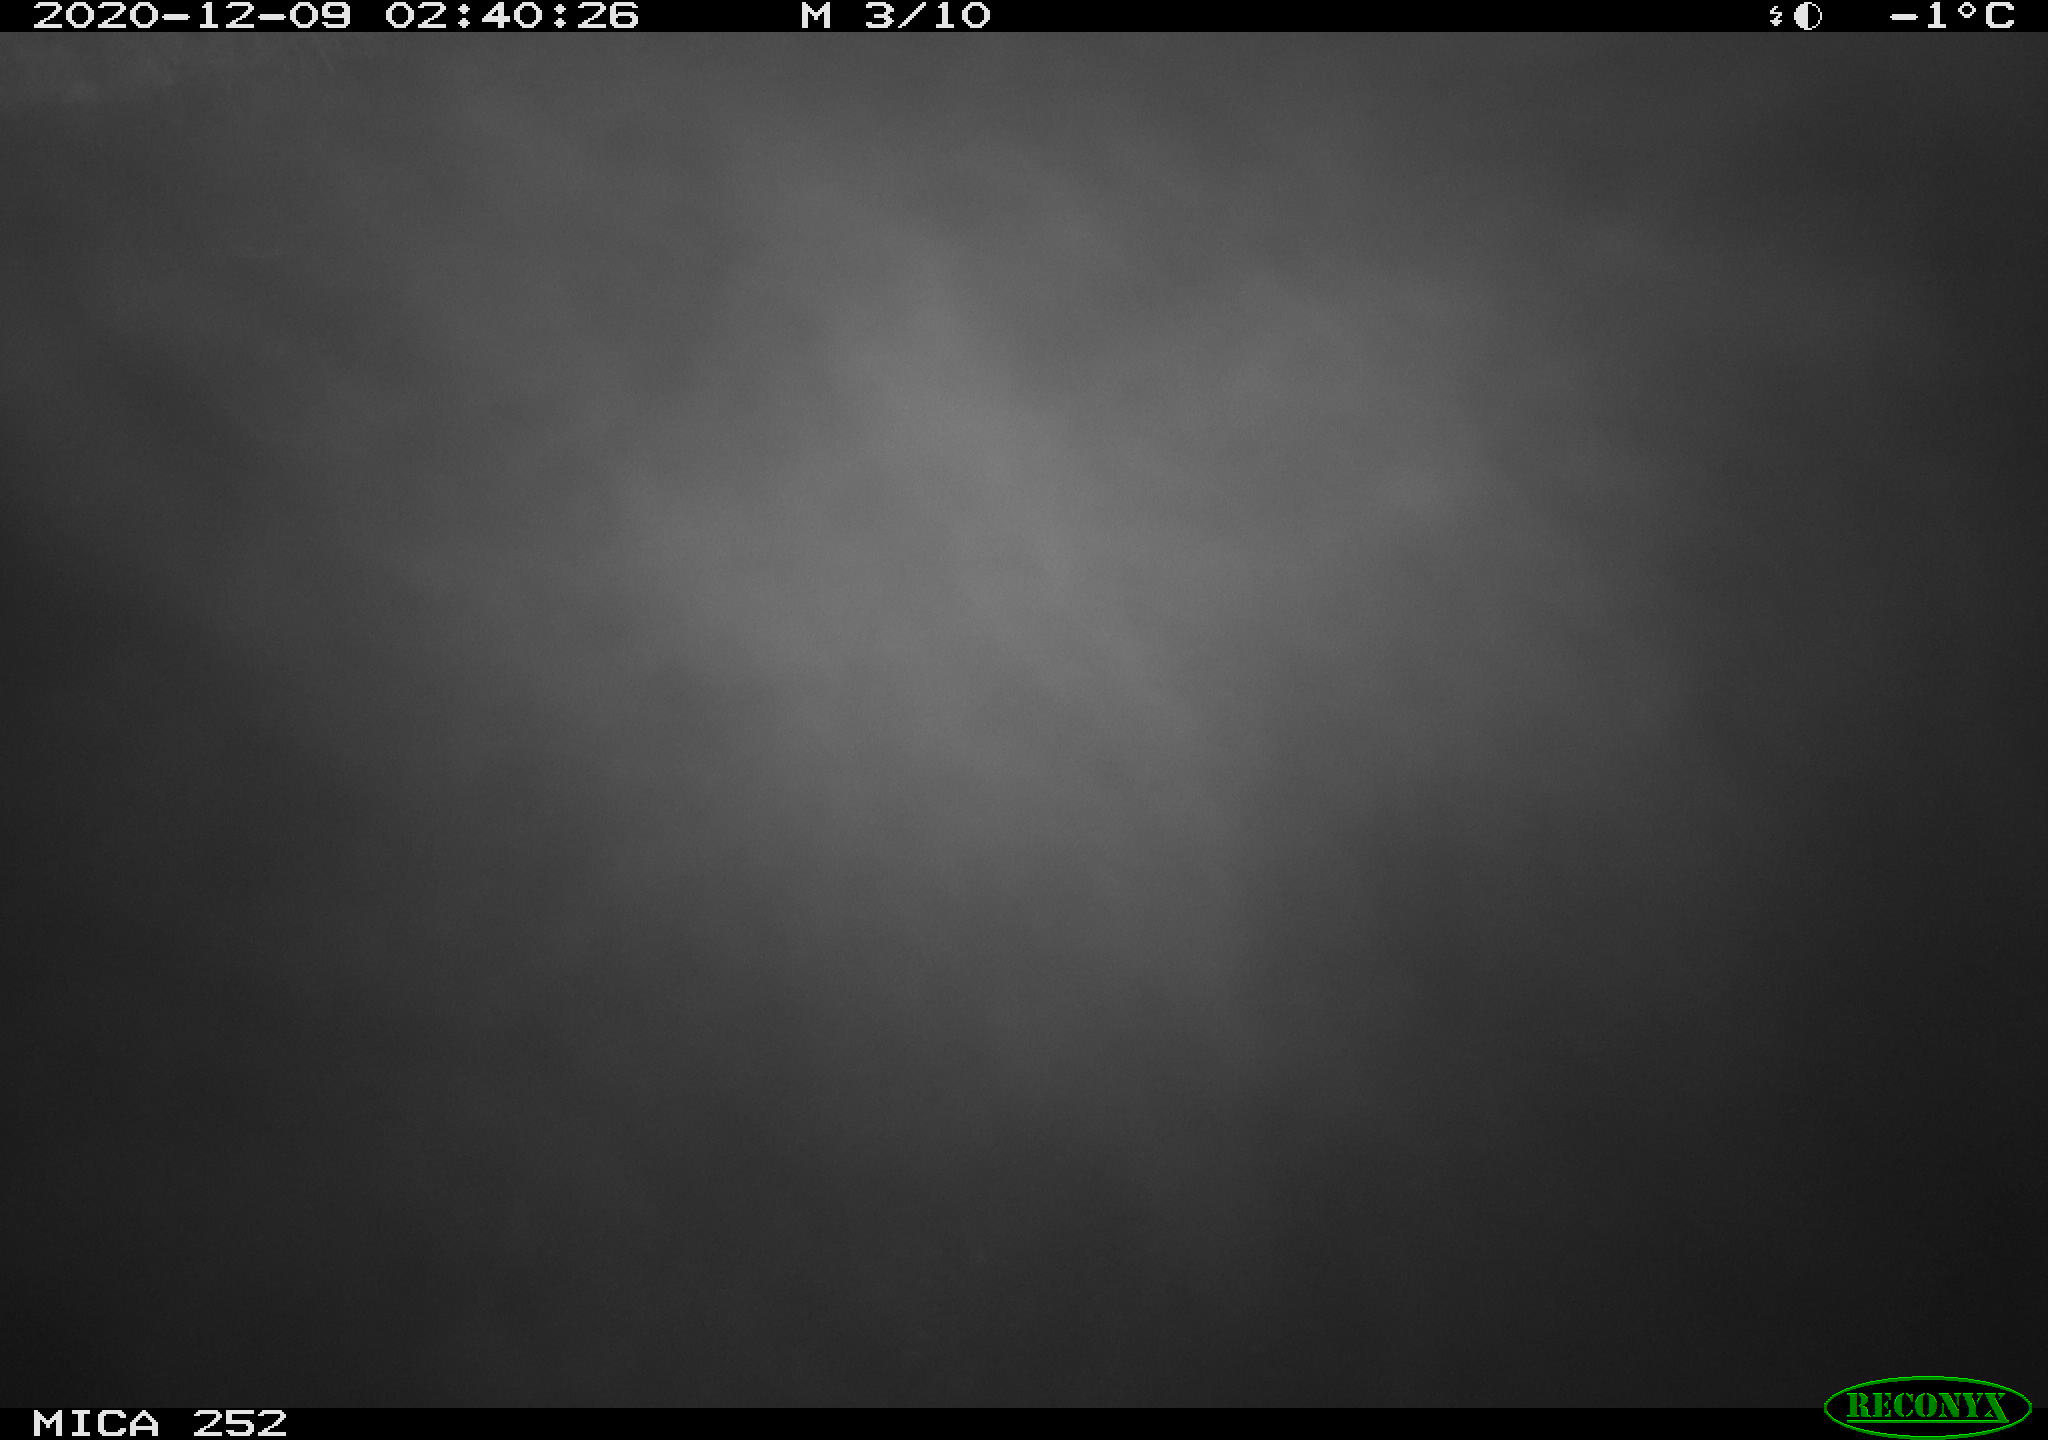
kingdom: Animalia
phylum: Chordata
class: Mammalia
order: Rodentia
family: Castoridae
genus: Castor
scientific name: Castor fiber
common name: Eurasian beaver
